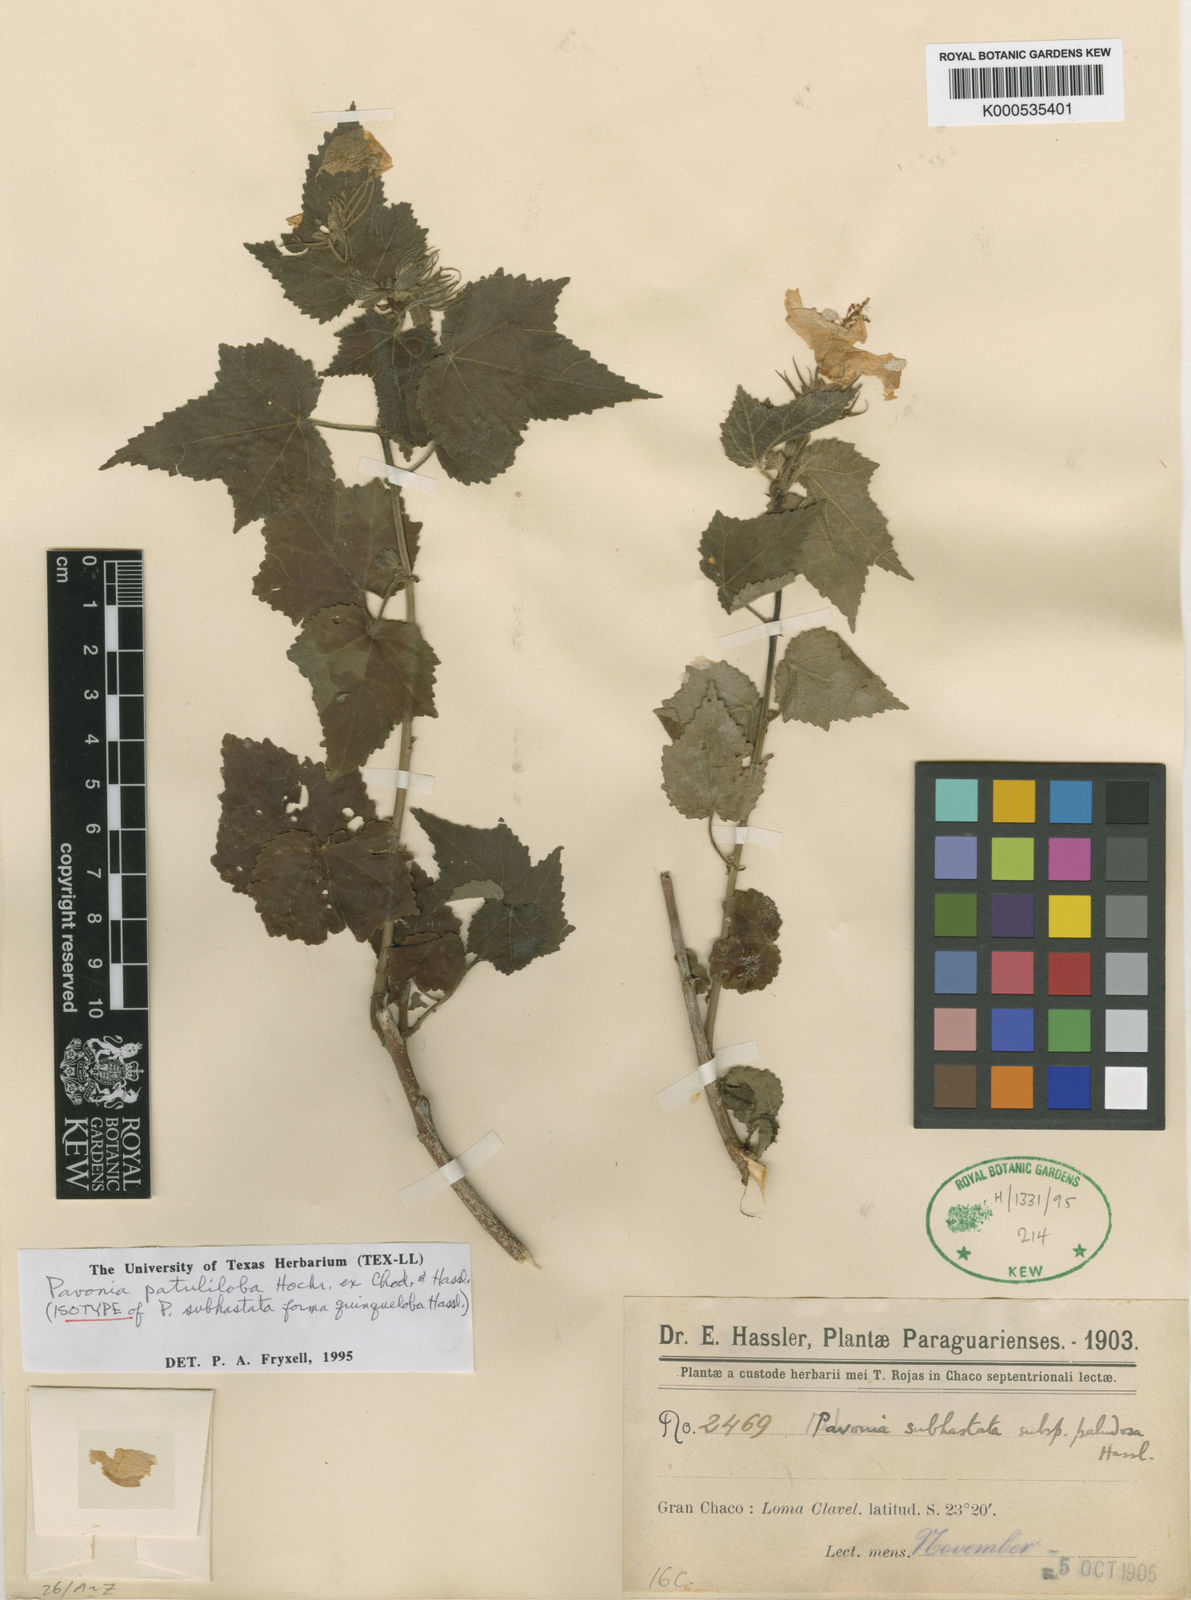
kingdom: Plantae
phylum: Tracheophyta
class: Magnoliopsida
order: Malvales
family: Malvaceae
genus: Pavonia
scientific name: Pavonia
